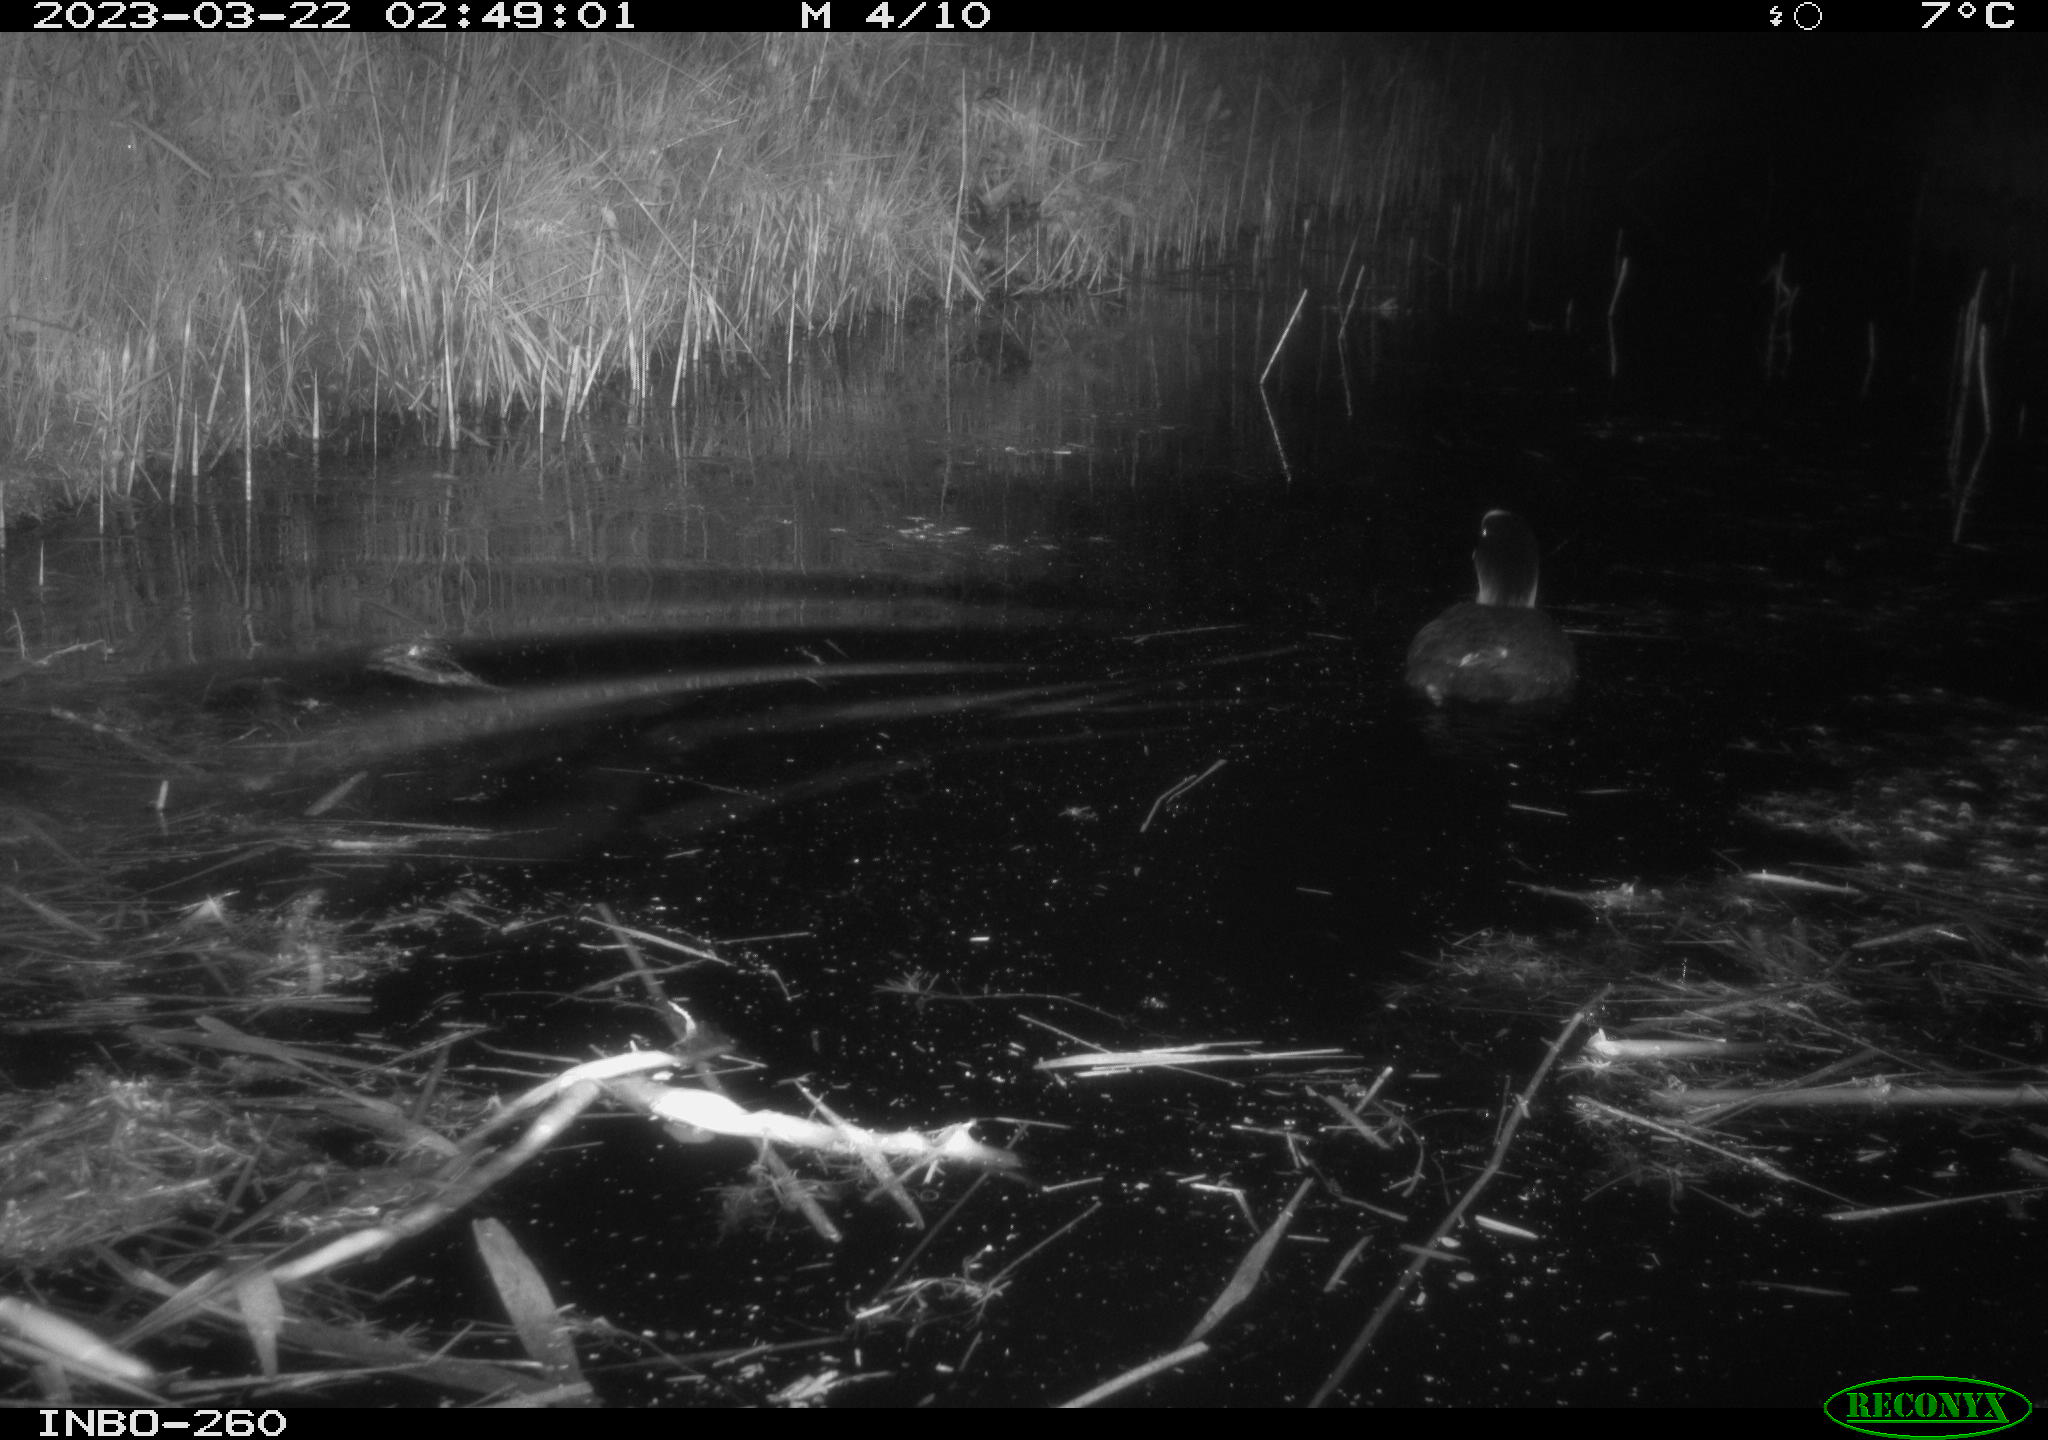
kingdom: Animalia
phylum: Chordata
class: Aves
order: Gruiformes
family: Rallidae
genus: Gallinula
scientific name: Gallinula chloropus
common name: Common moorhen
